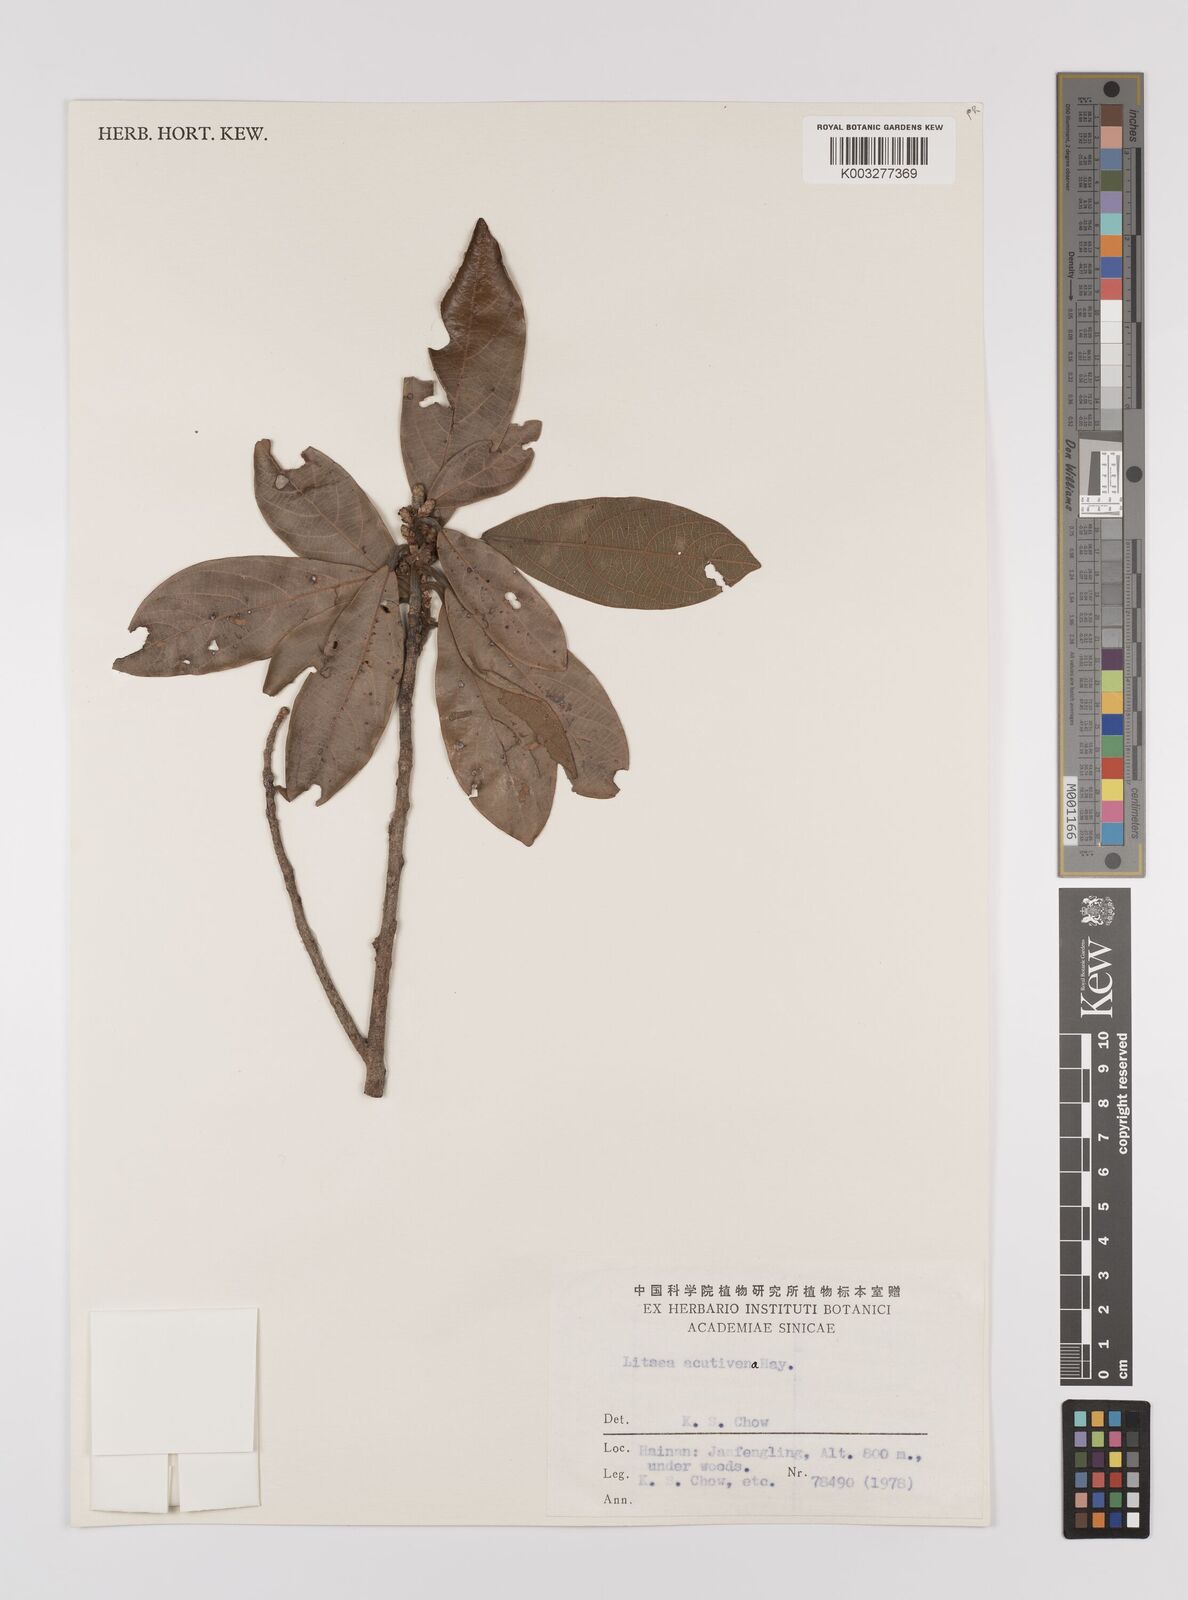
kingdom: Plantae
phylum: Tracheophyta
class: Magnoliopsida
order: Laurales
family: Lauraceae
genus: Litsea
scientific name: Litsea elongata
